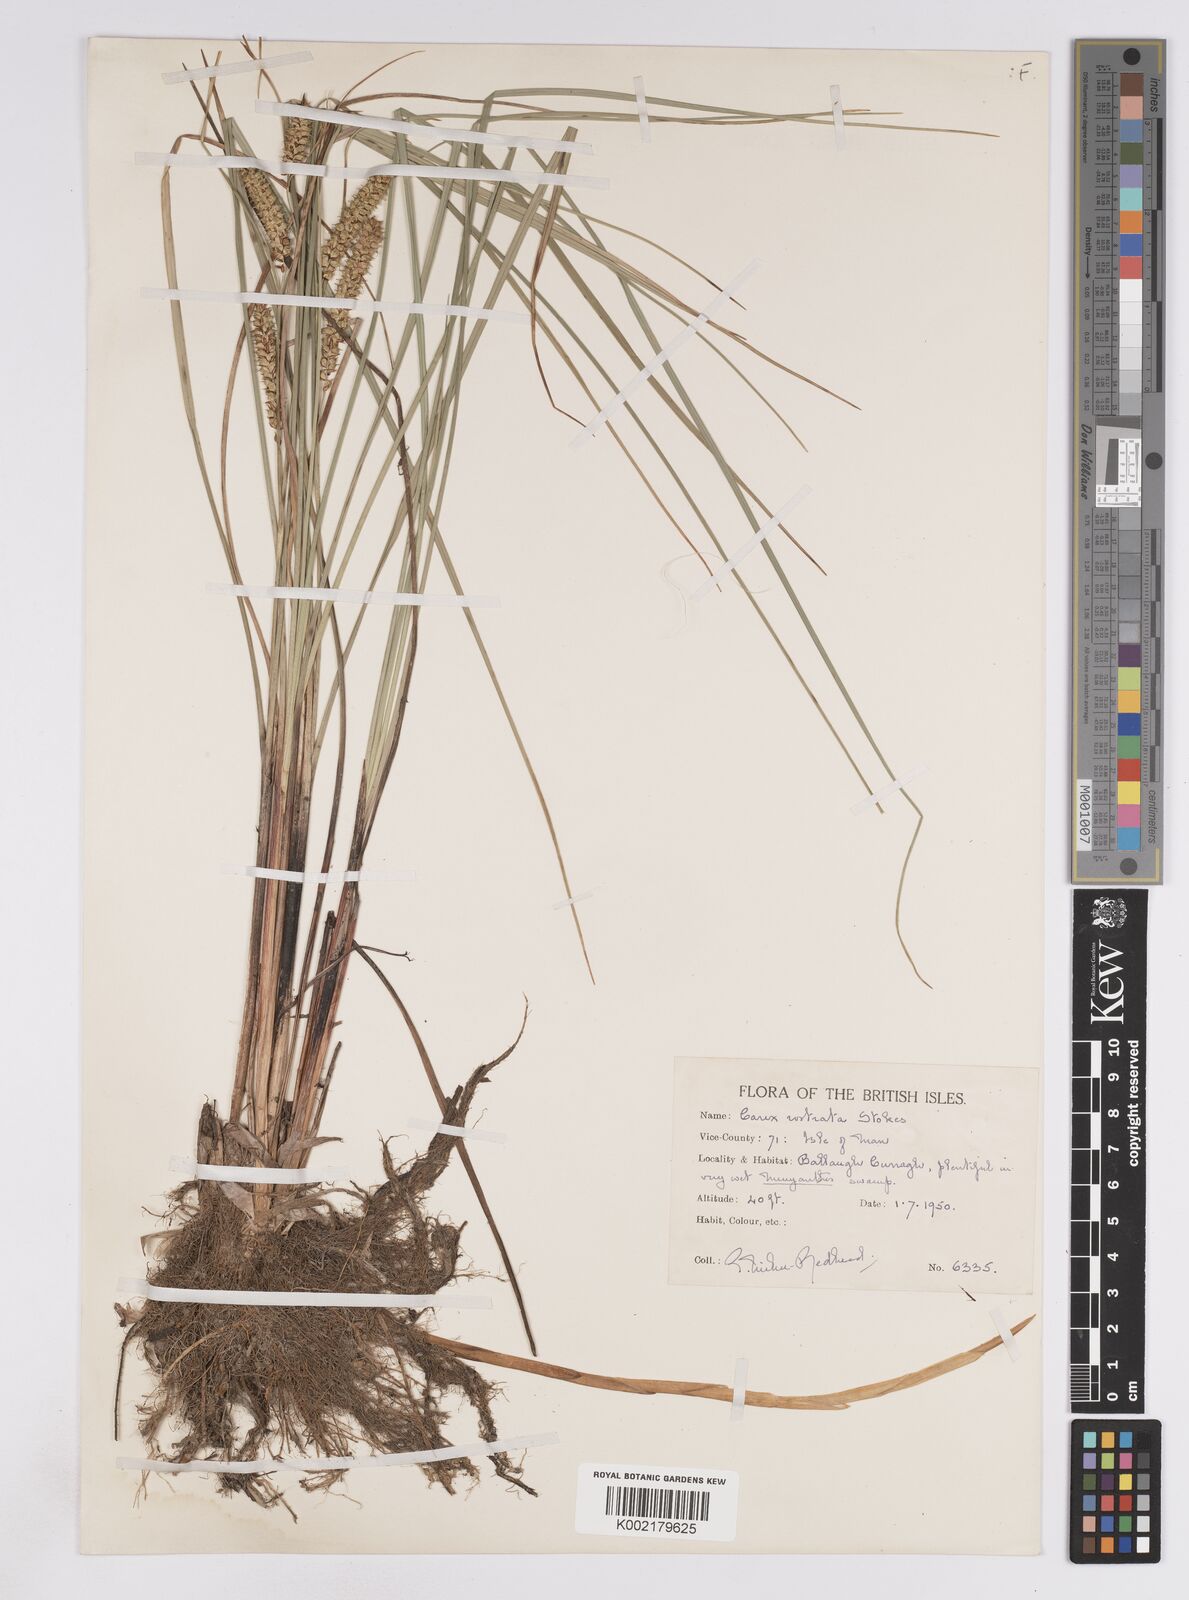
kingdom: Plantae
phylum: Tracheophyta
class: Liliopsida
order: Poales
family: Cyperaceae
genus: Carex
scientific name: Carex rostrata
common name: Bottle sedge
